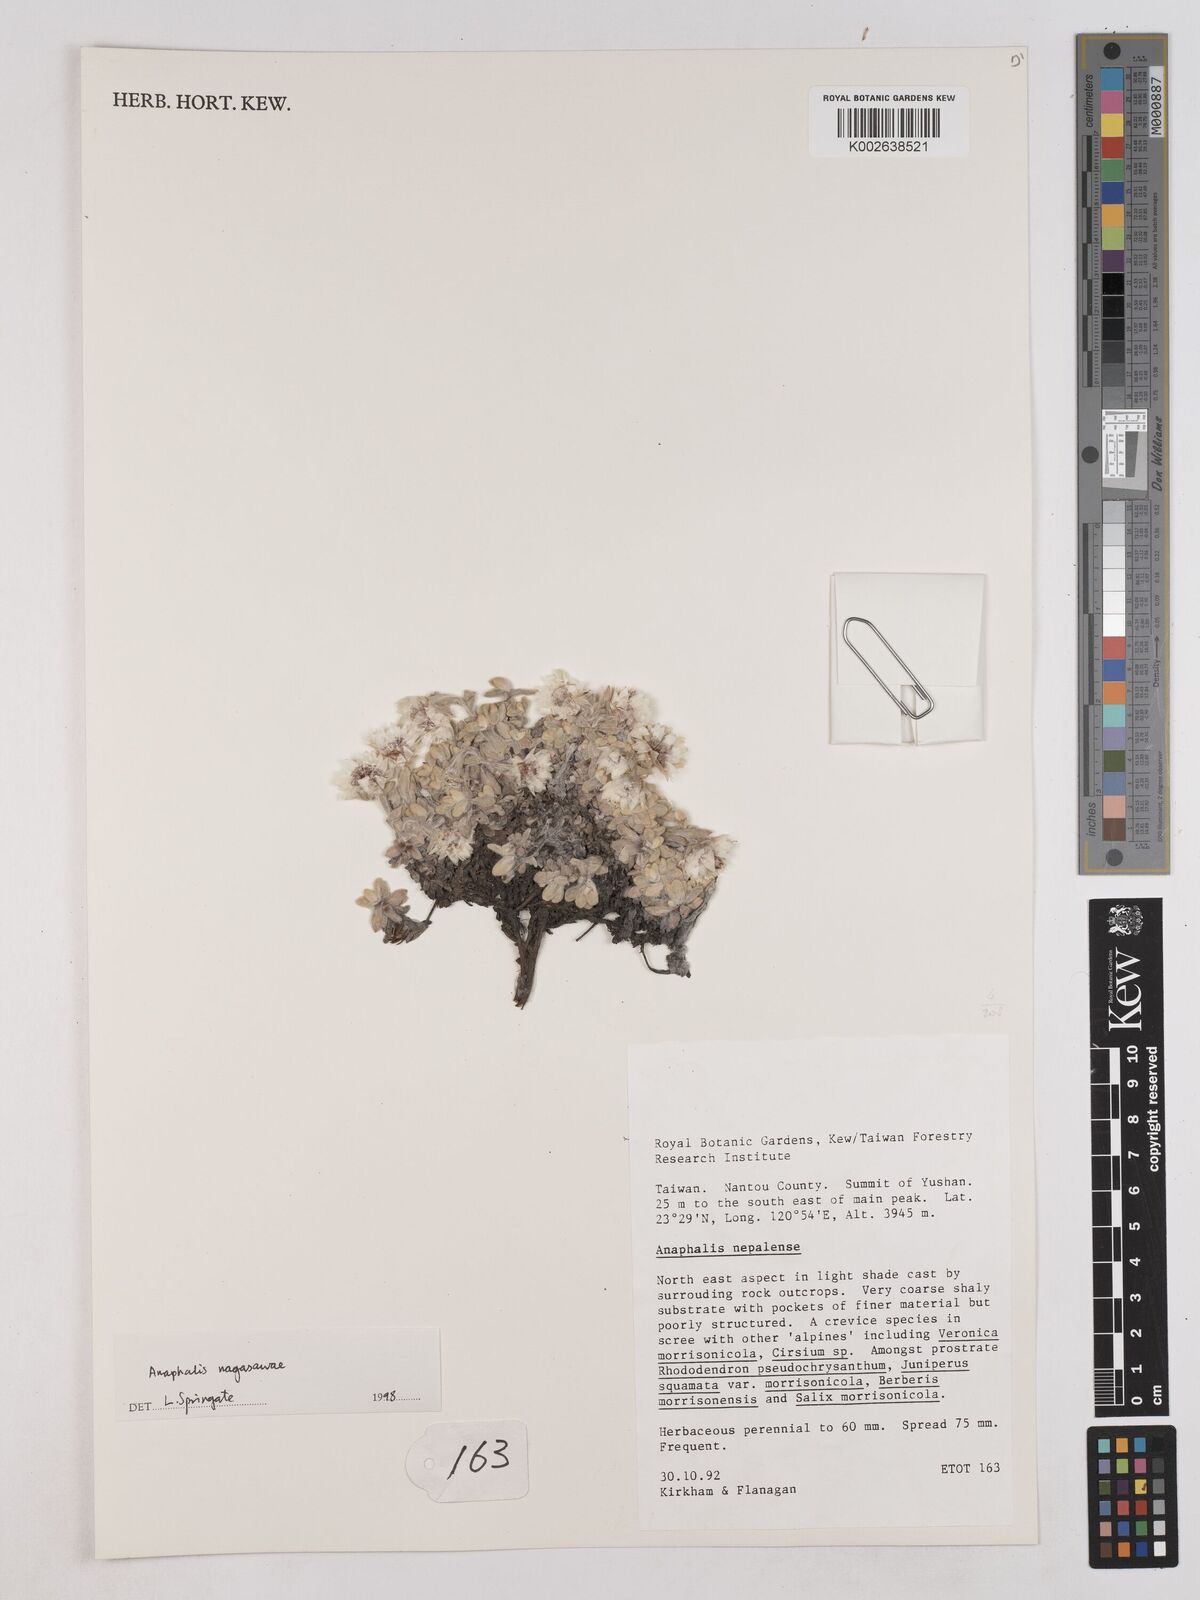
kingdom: Plantae
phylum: Tracheophyta
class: Magnoliopsida
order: Asterales
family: Asteraceae
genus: Anaphalis
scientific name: Anaphalis nagasawae
